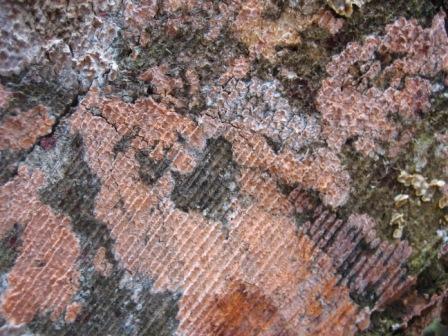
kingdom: Fungi
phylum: Basidiomycota
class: Agaricomycetes
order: Russulales
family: Peniophoraceae
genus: Peniophora
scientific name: Peniophora incarnata
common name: laksefarvet voksskind
